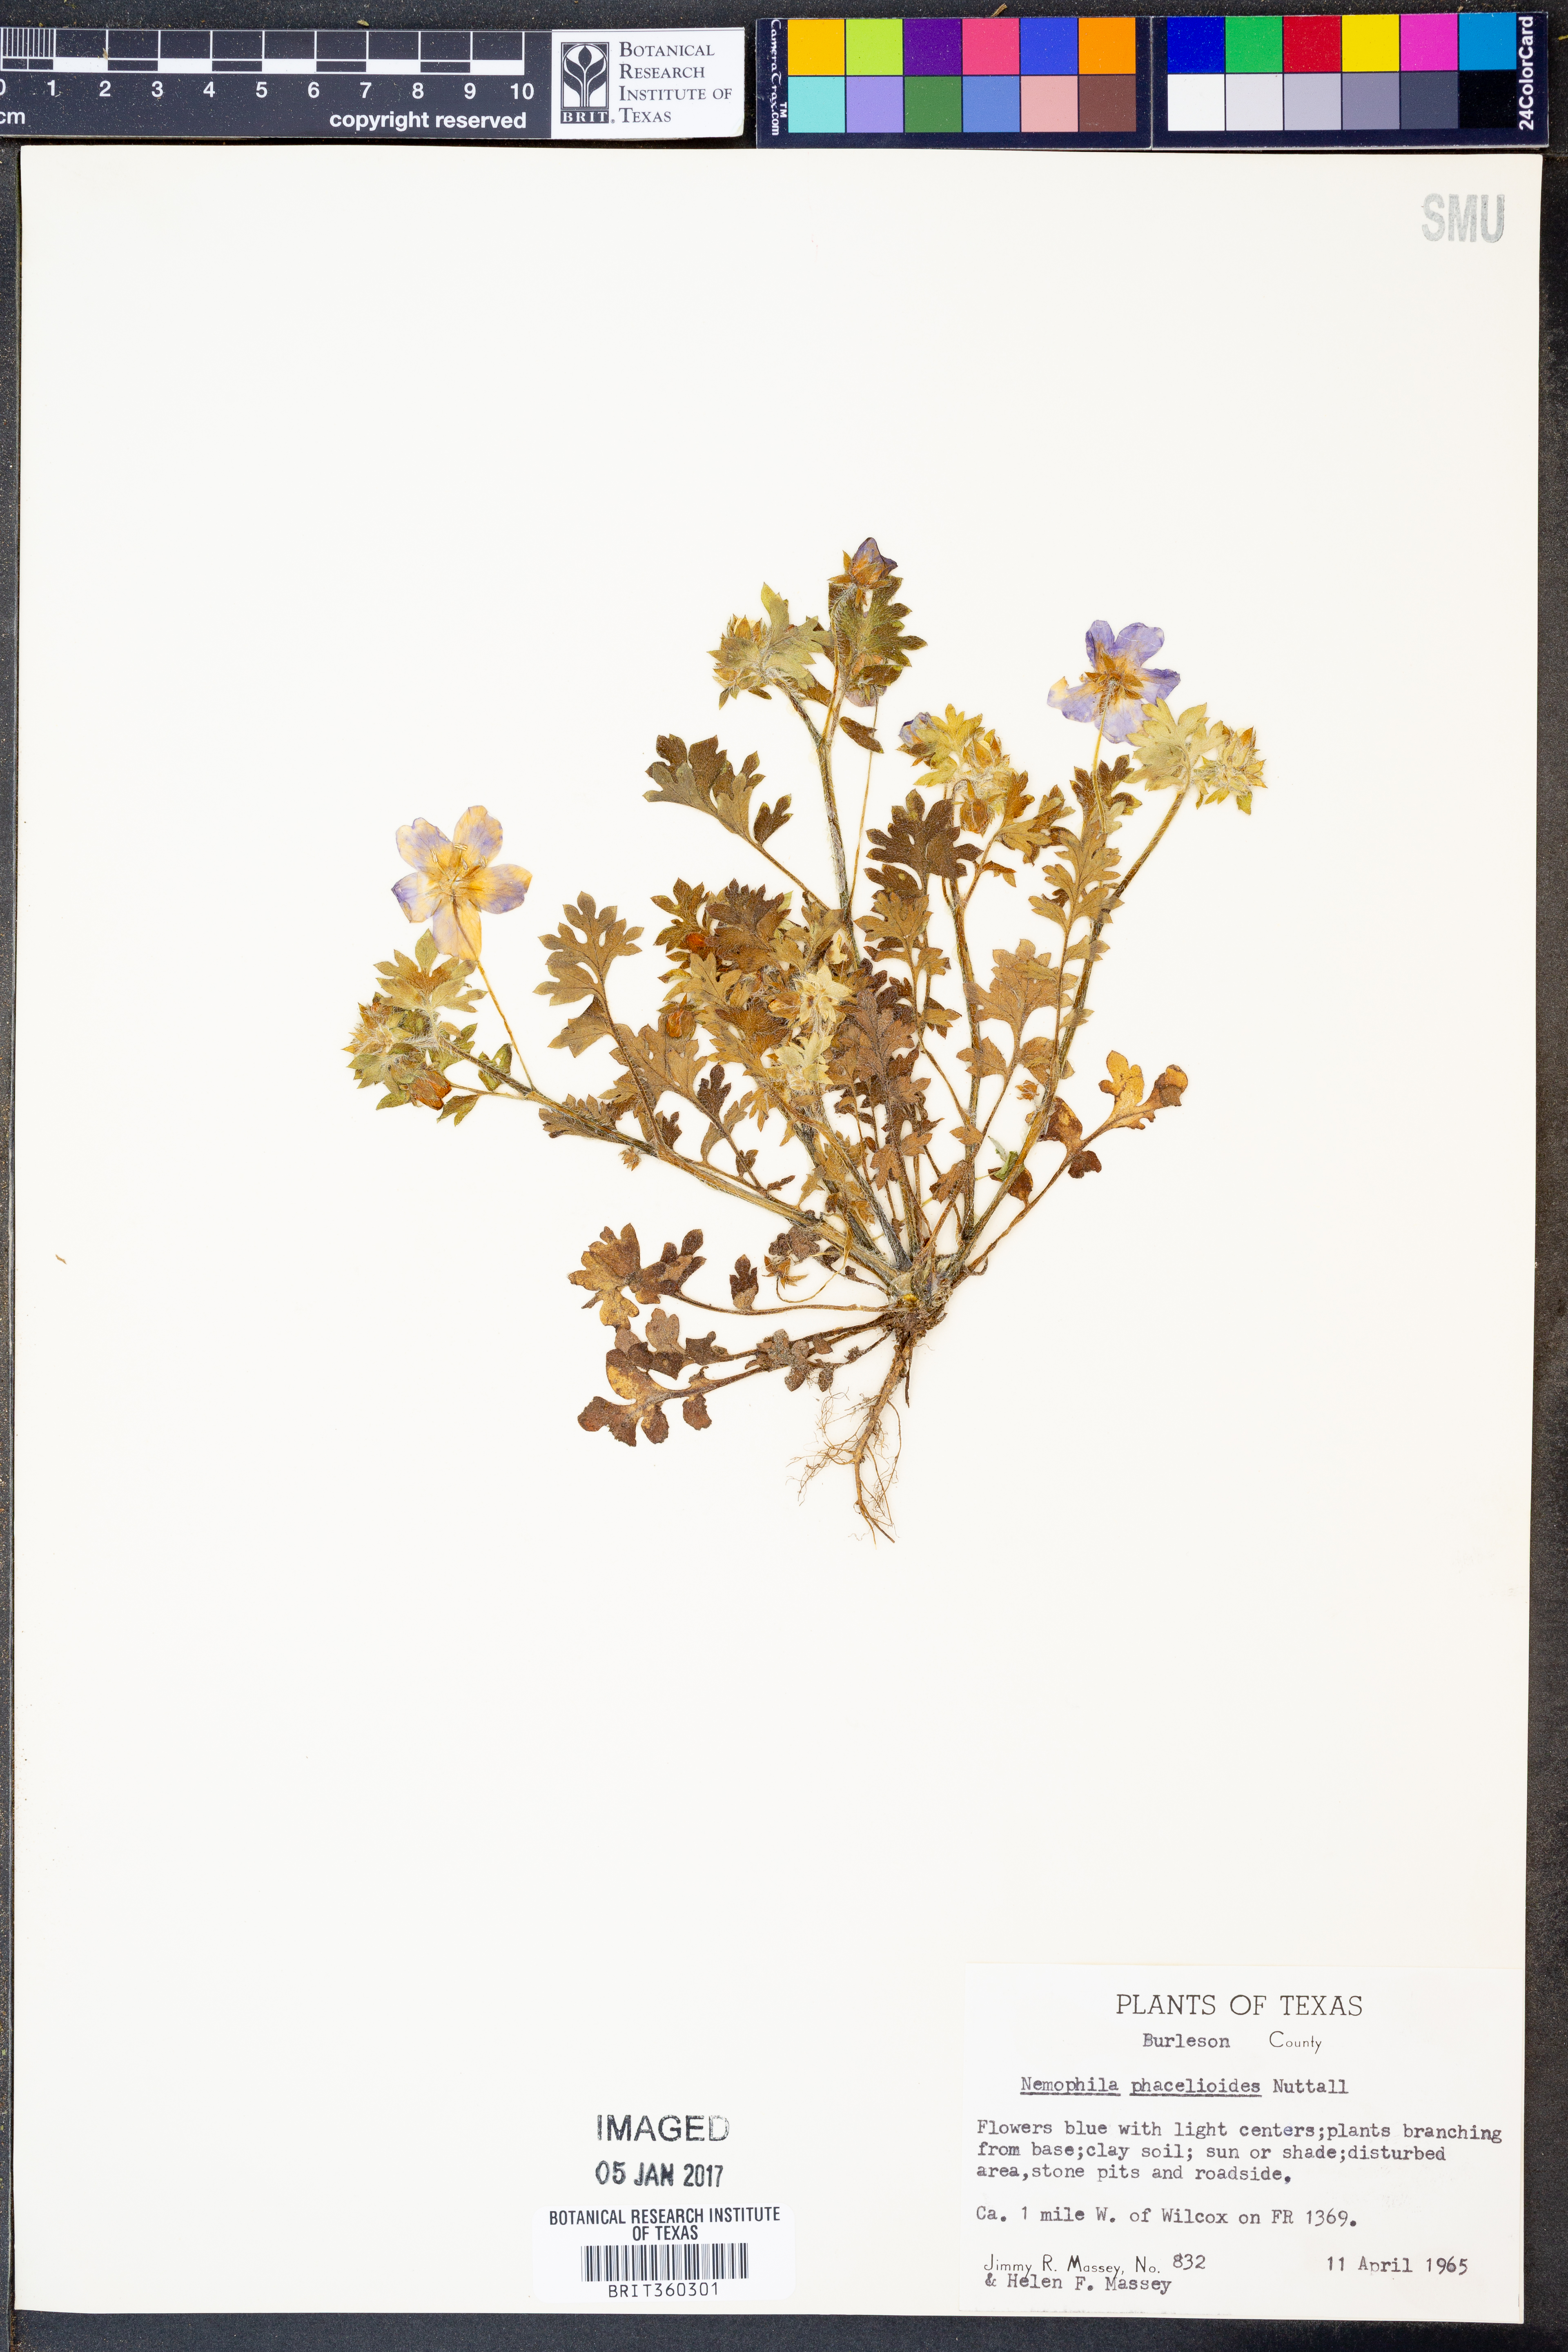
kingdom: Plantae
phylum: Tracheophyta
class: Magnoliopsida
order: Boraginales
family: Hydrophyllaceae
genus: Nemophila
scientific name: Nemophila phacelioides
